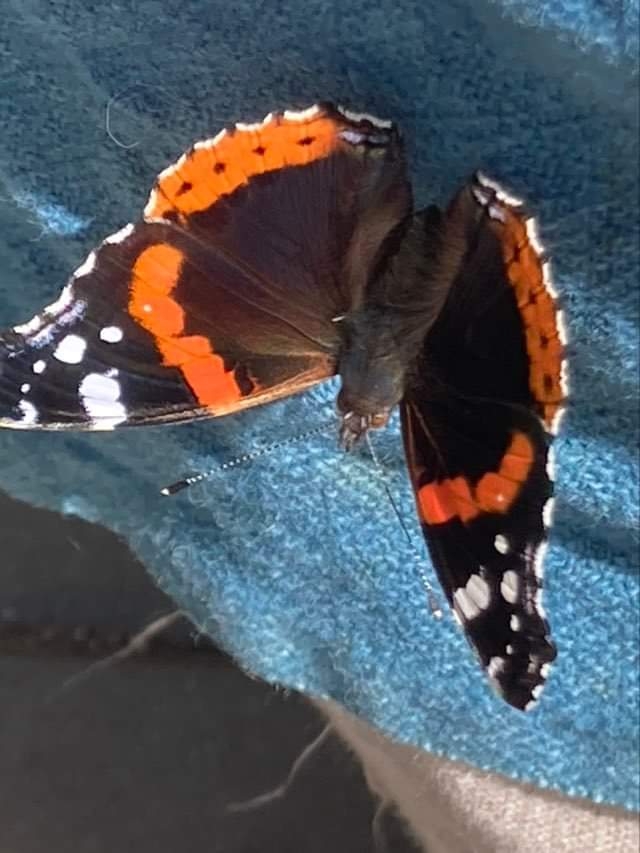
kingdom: Animalia
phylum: Arthropoda
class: Insecta
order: Lepidoptera
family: Nymphalidae
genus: Vanessa
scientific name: Vanessa atalanta
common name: Admiral
